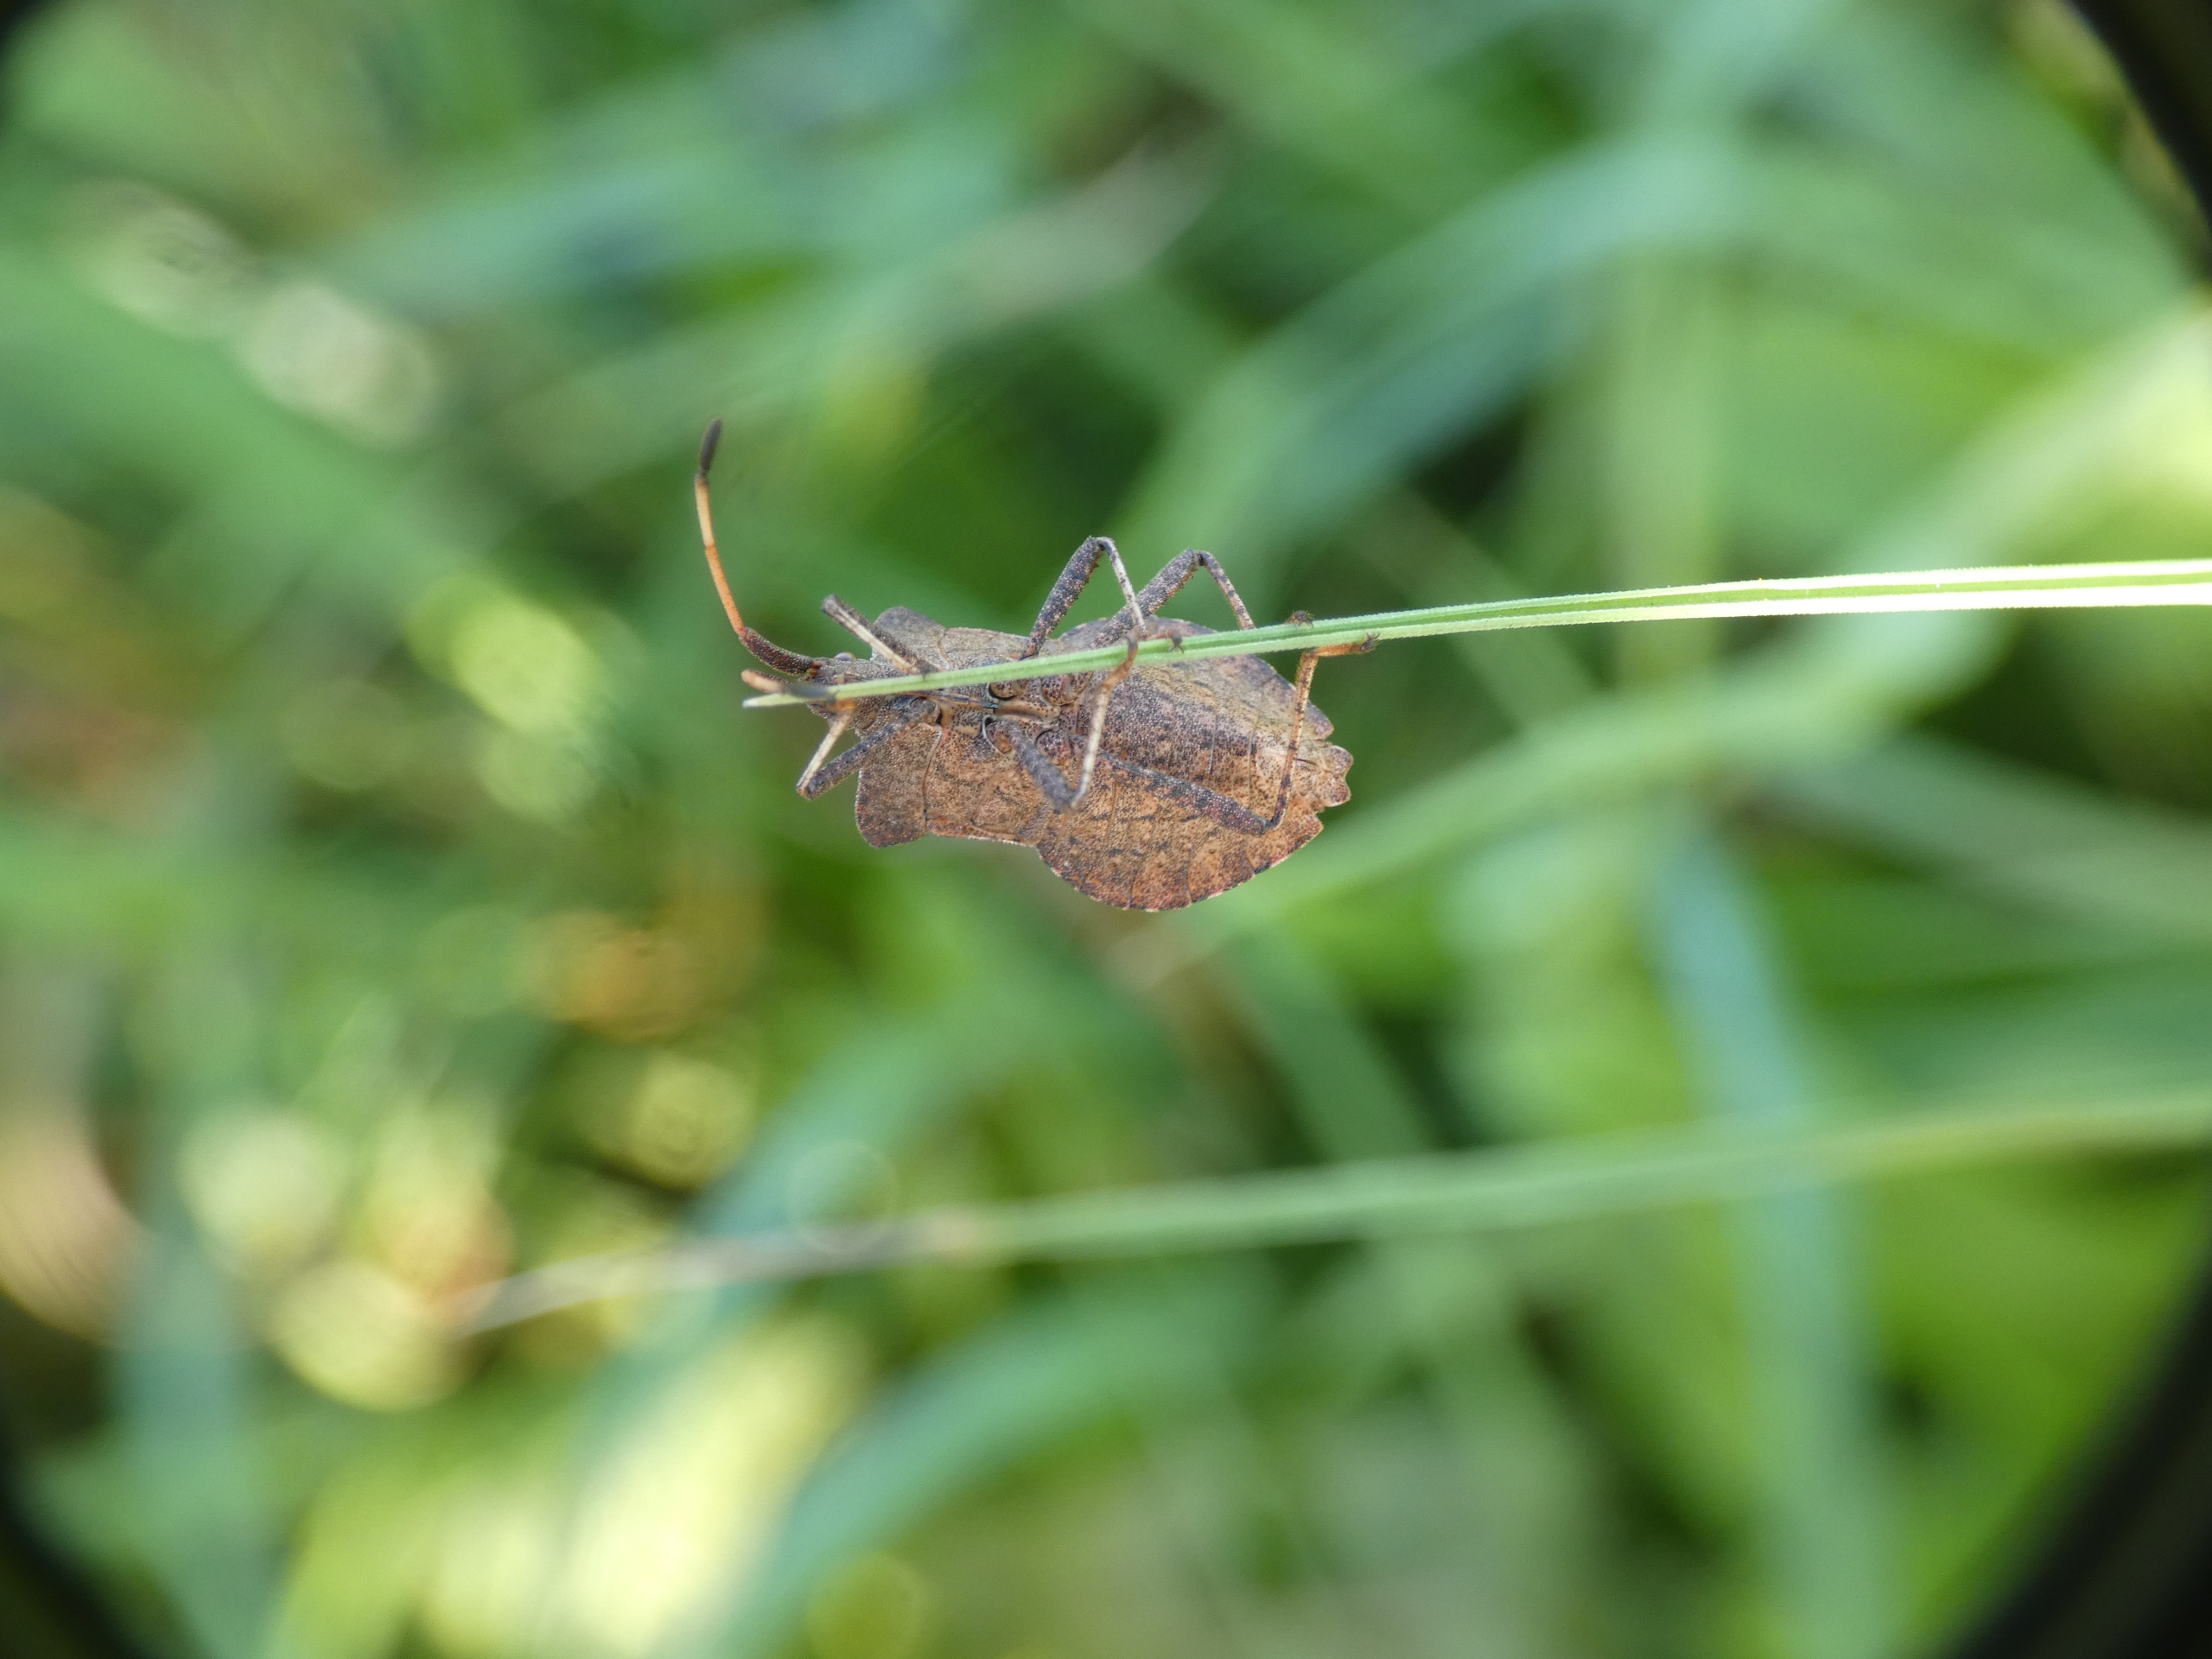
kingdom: Animalia
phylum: Arthropoda
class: Insecta
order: Hemiptera
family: Coreidae
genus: Coreus
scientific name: Coreus marginatus
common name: Skræppetæge
